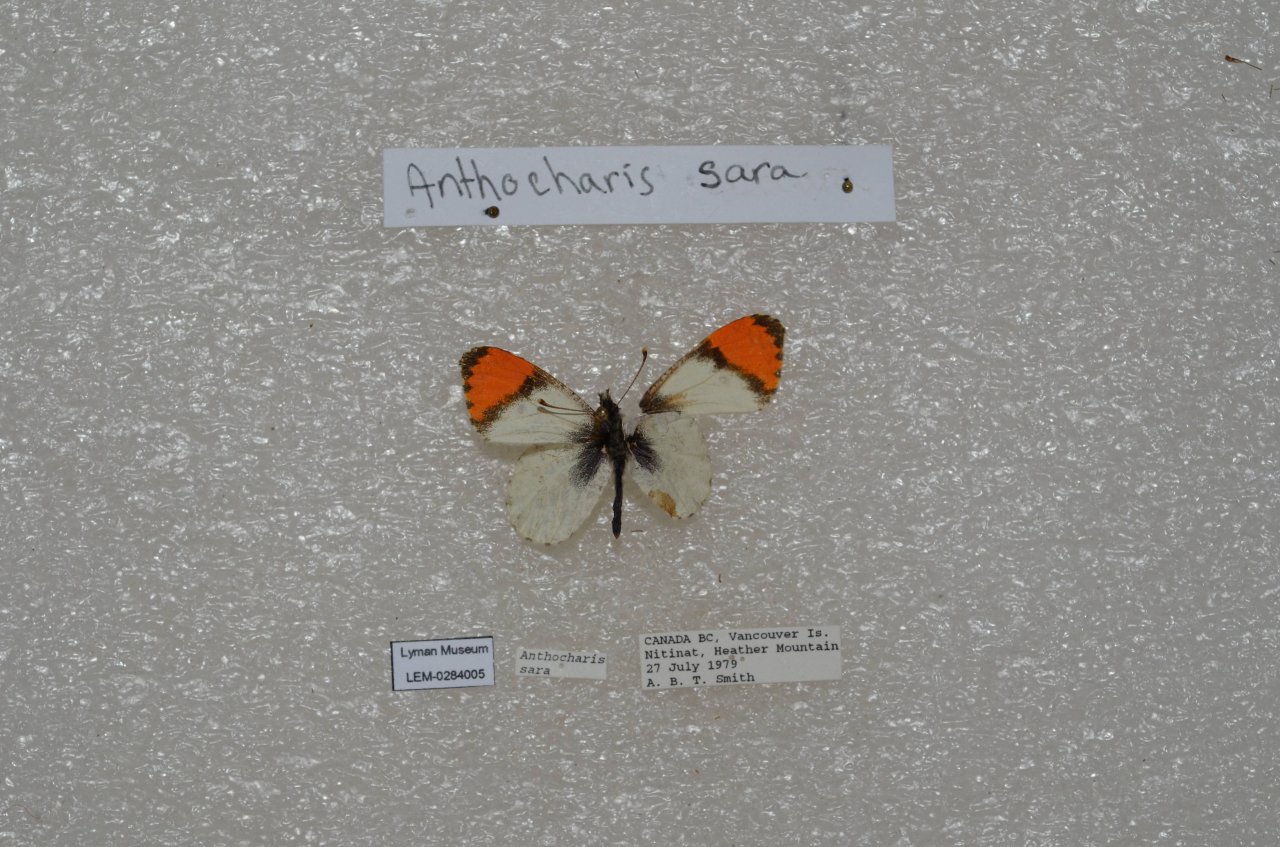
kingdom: Animalia
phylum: Arthropoda
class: Insecta
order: Lepidoptera
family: Pieridae
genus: Anthocharis
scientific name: Anthocharis sara
